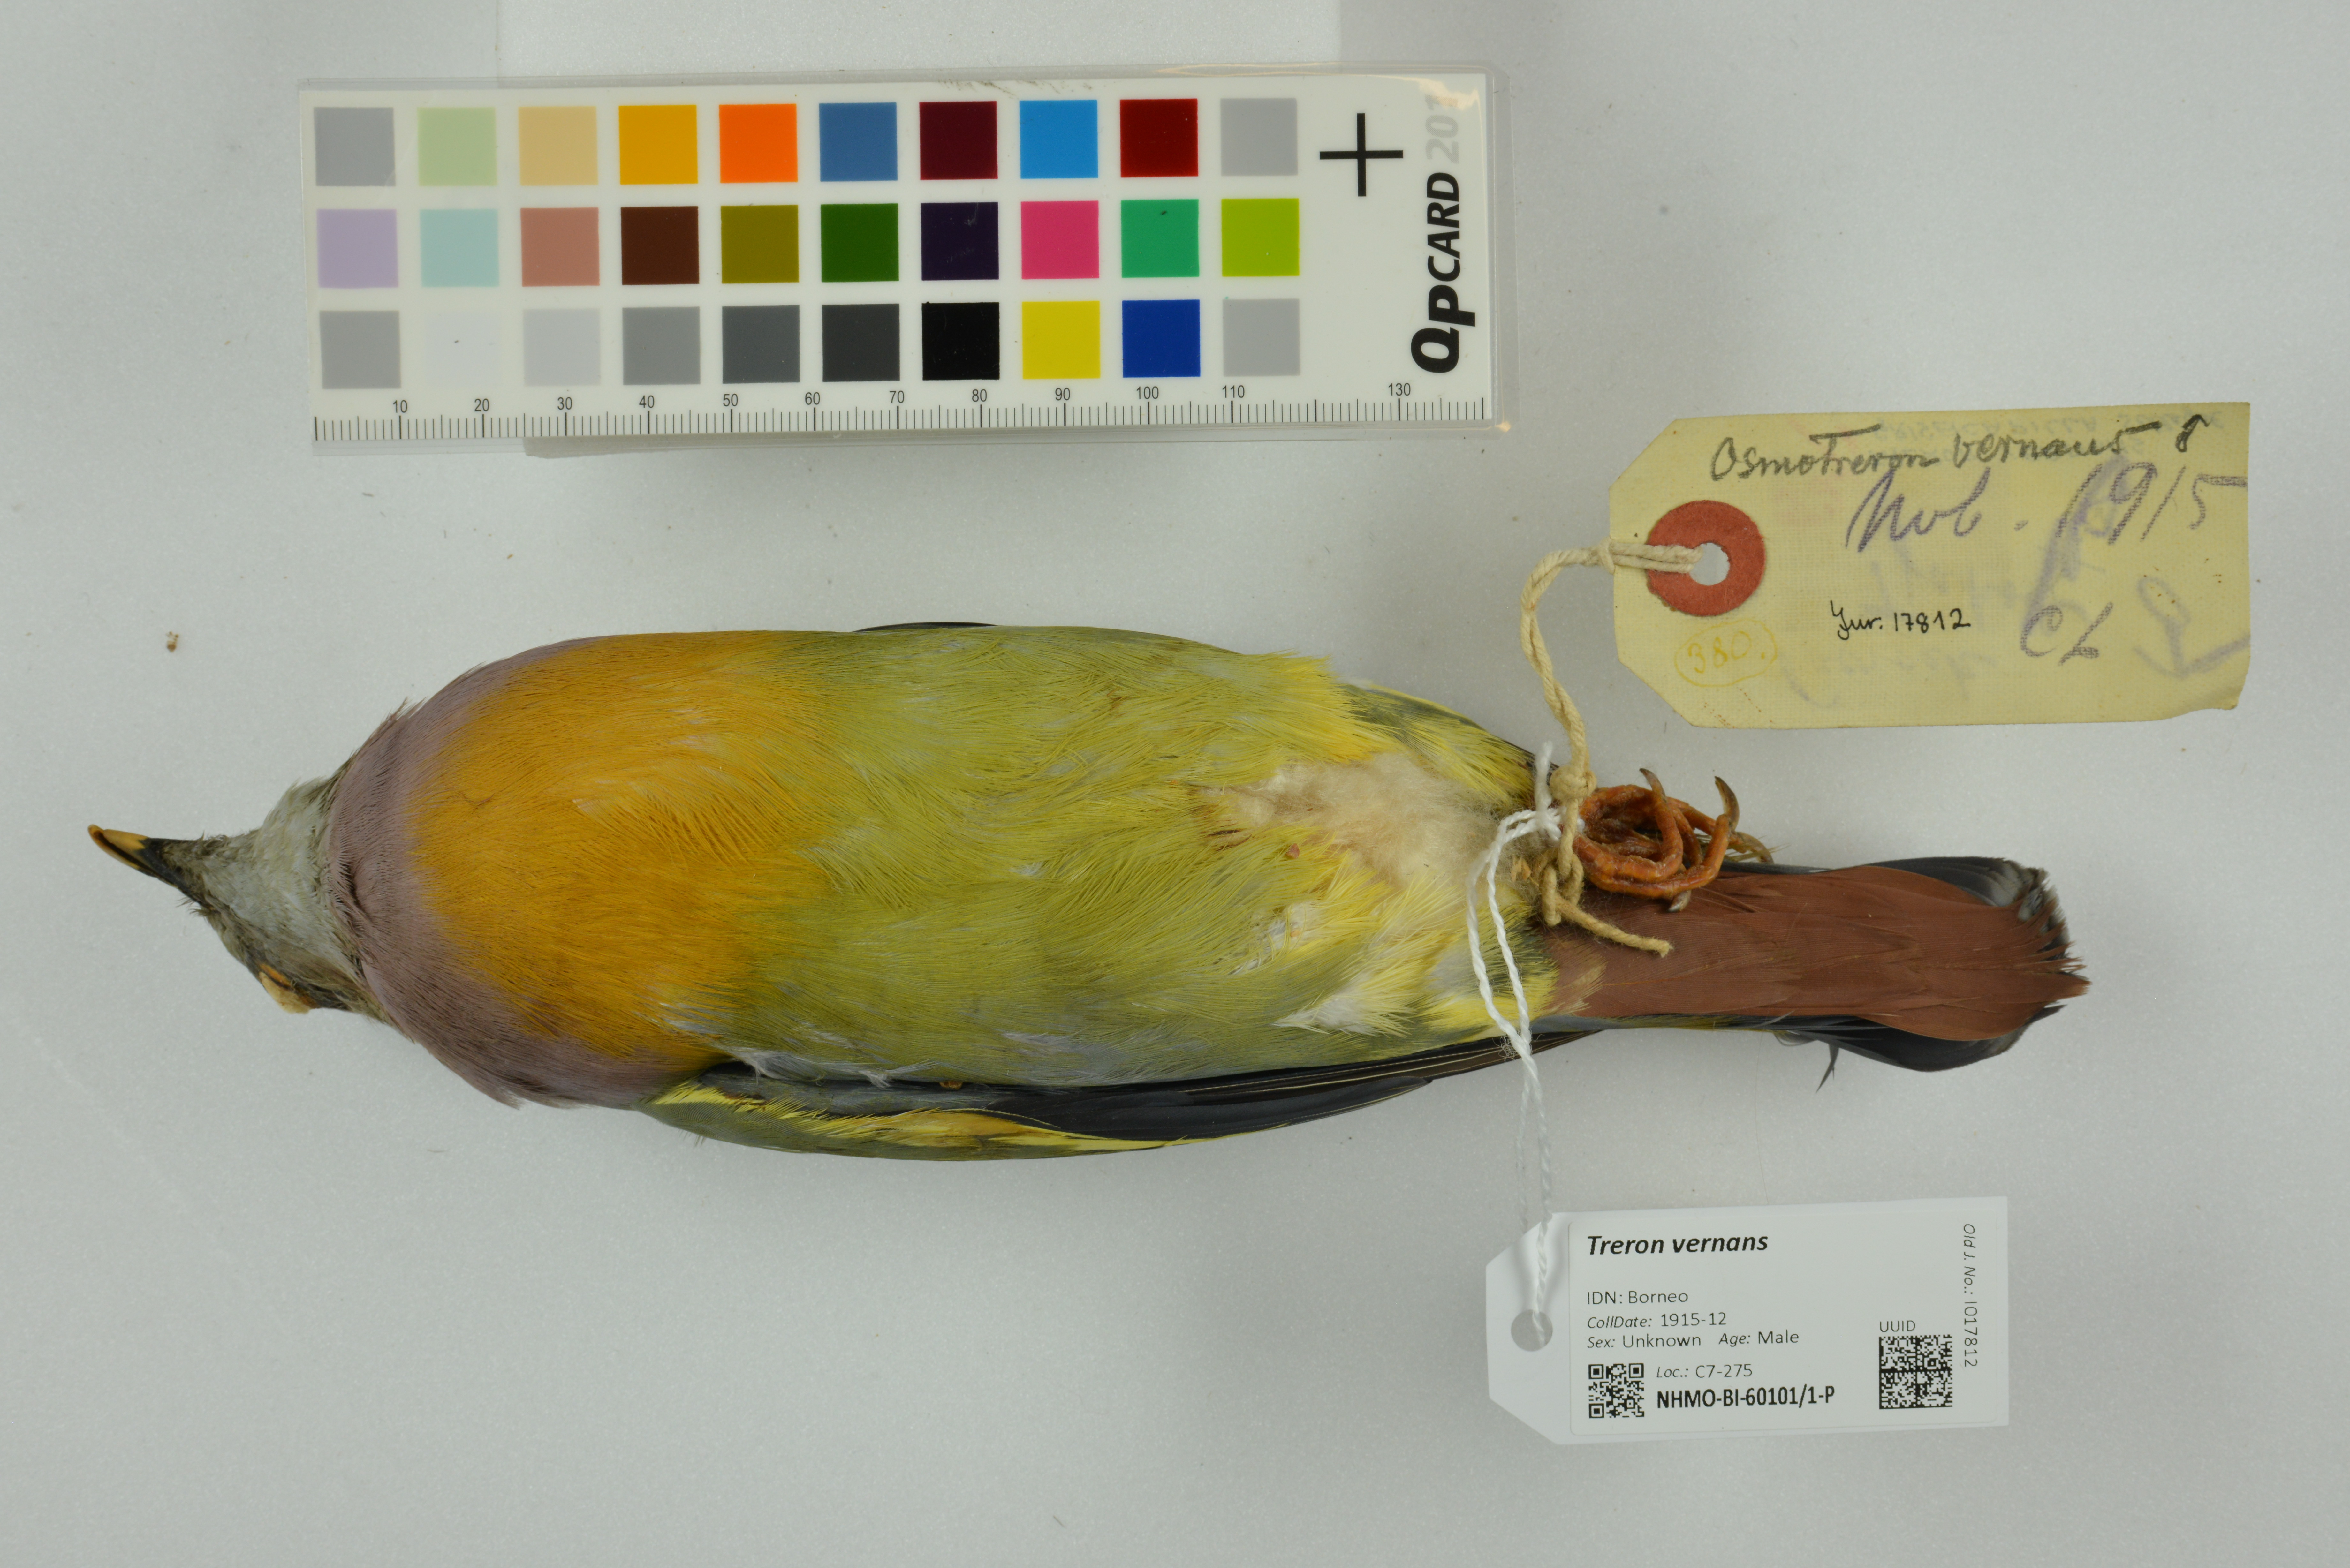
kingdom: Animalia
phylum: Chordata
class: Aves
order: Columbiformes
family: Columbidae
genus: Treron
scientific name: Treron vernans
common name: Pink-necked green pigeon
